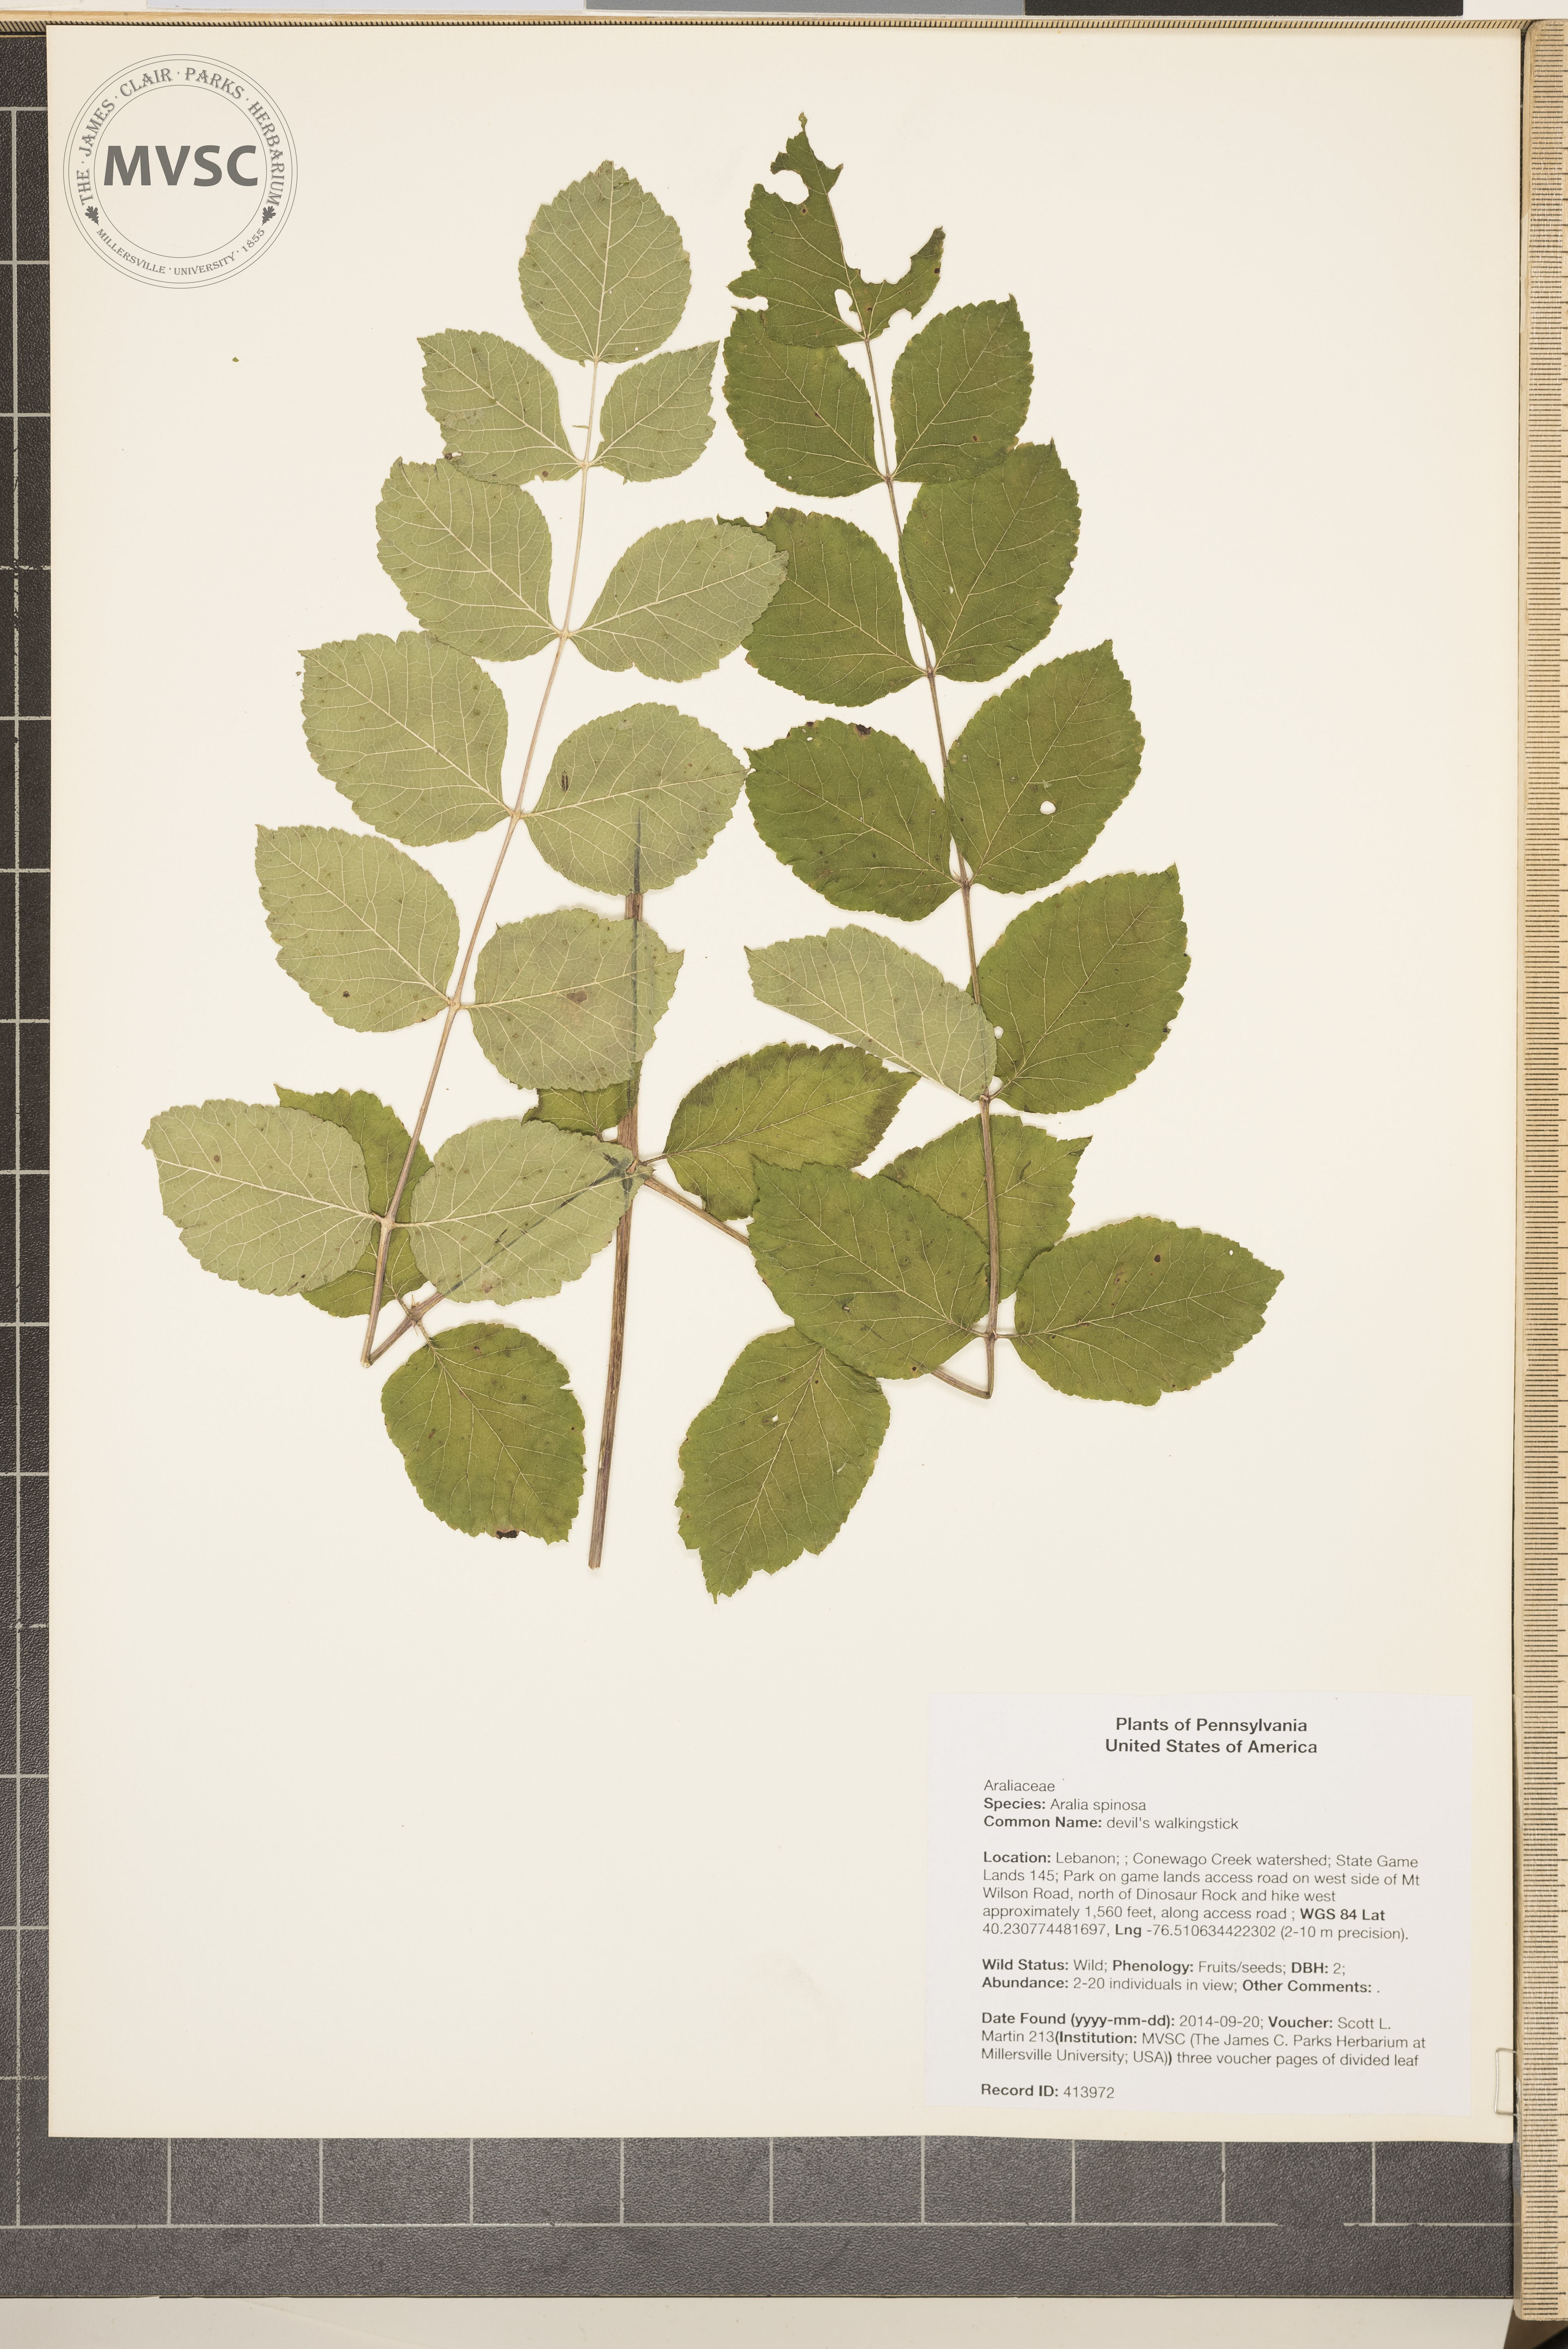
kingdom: Plantae
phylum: Tracheophyta
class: Magnoliopsida
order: Apiales
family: Araliaceae
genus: Aralia
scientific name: Aralia spinosa
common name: devil's walkingstick
